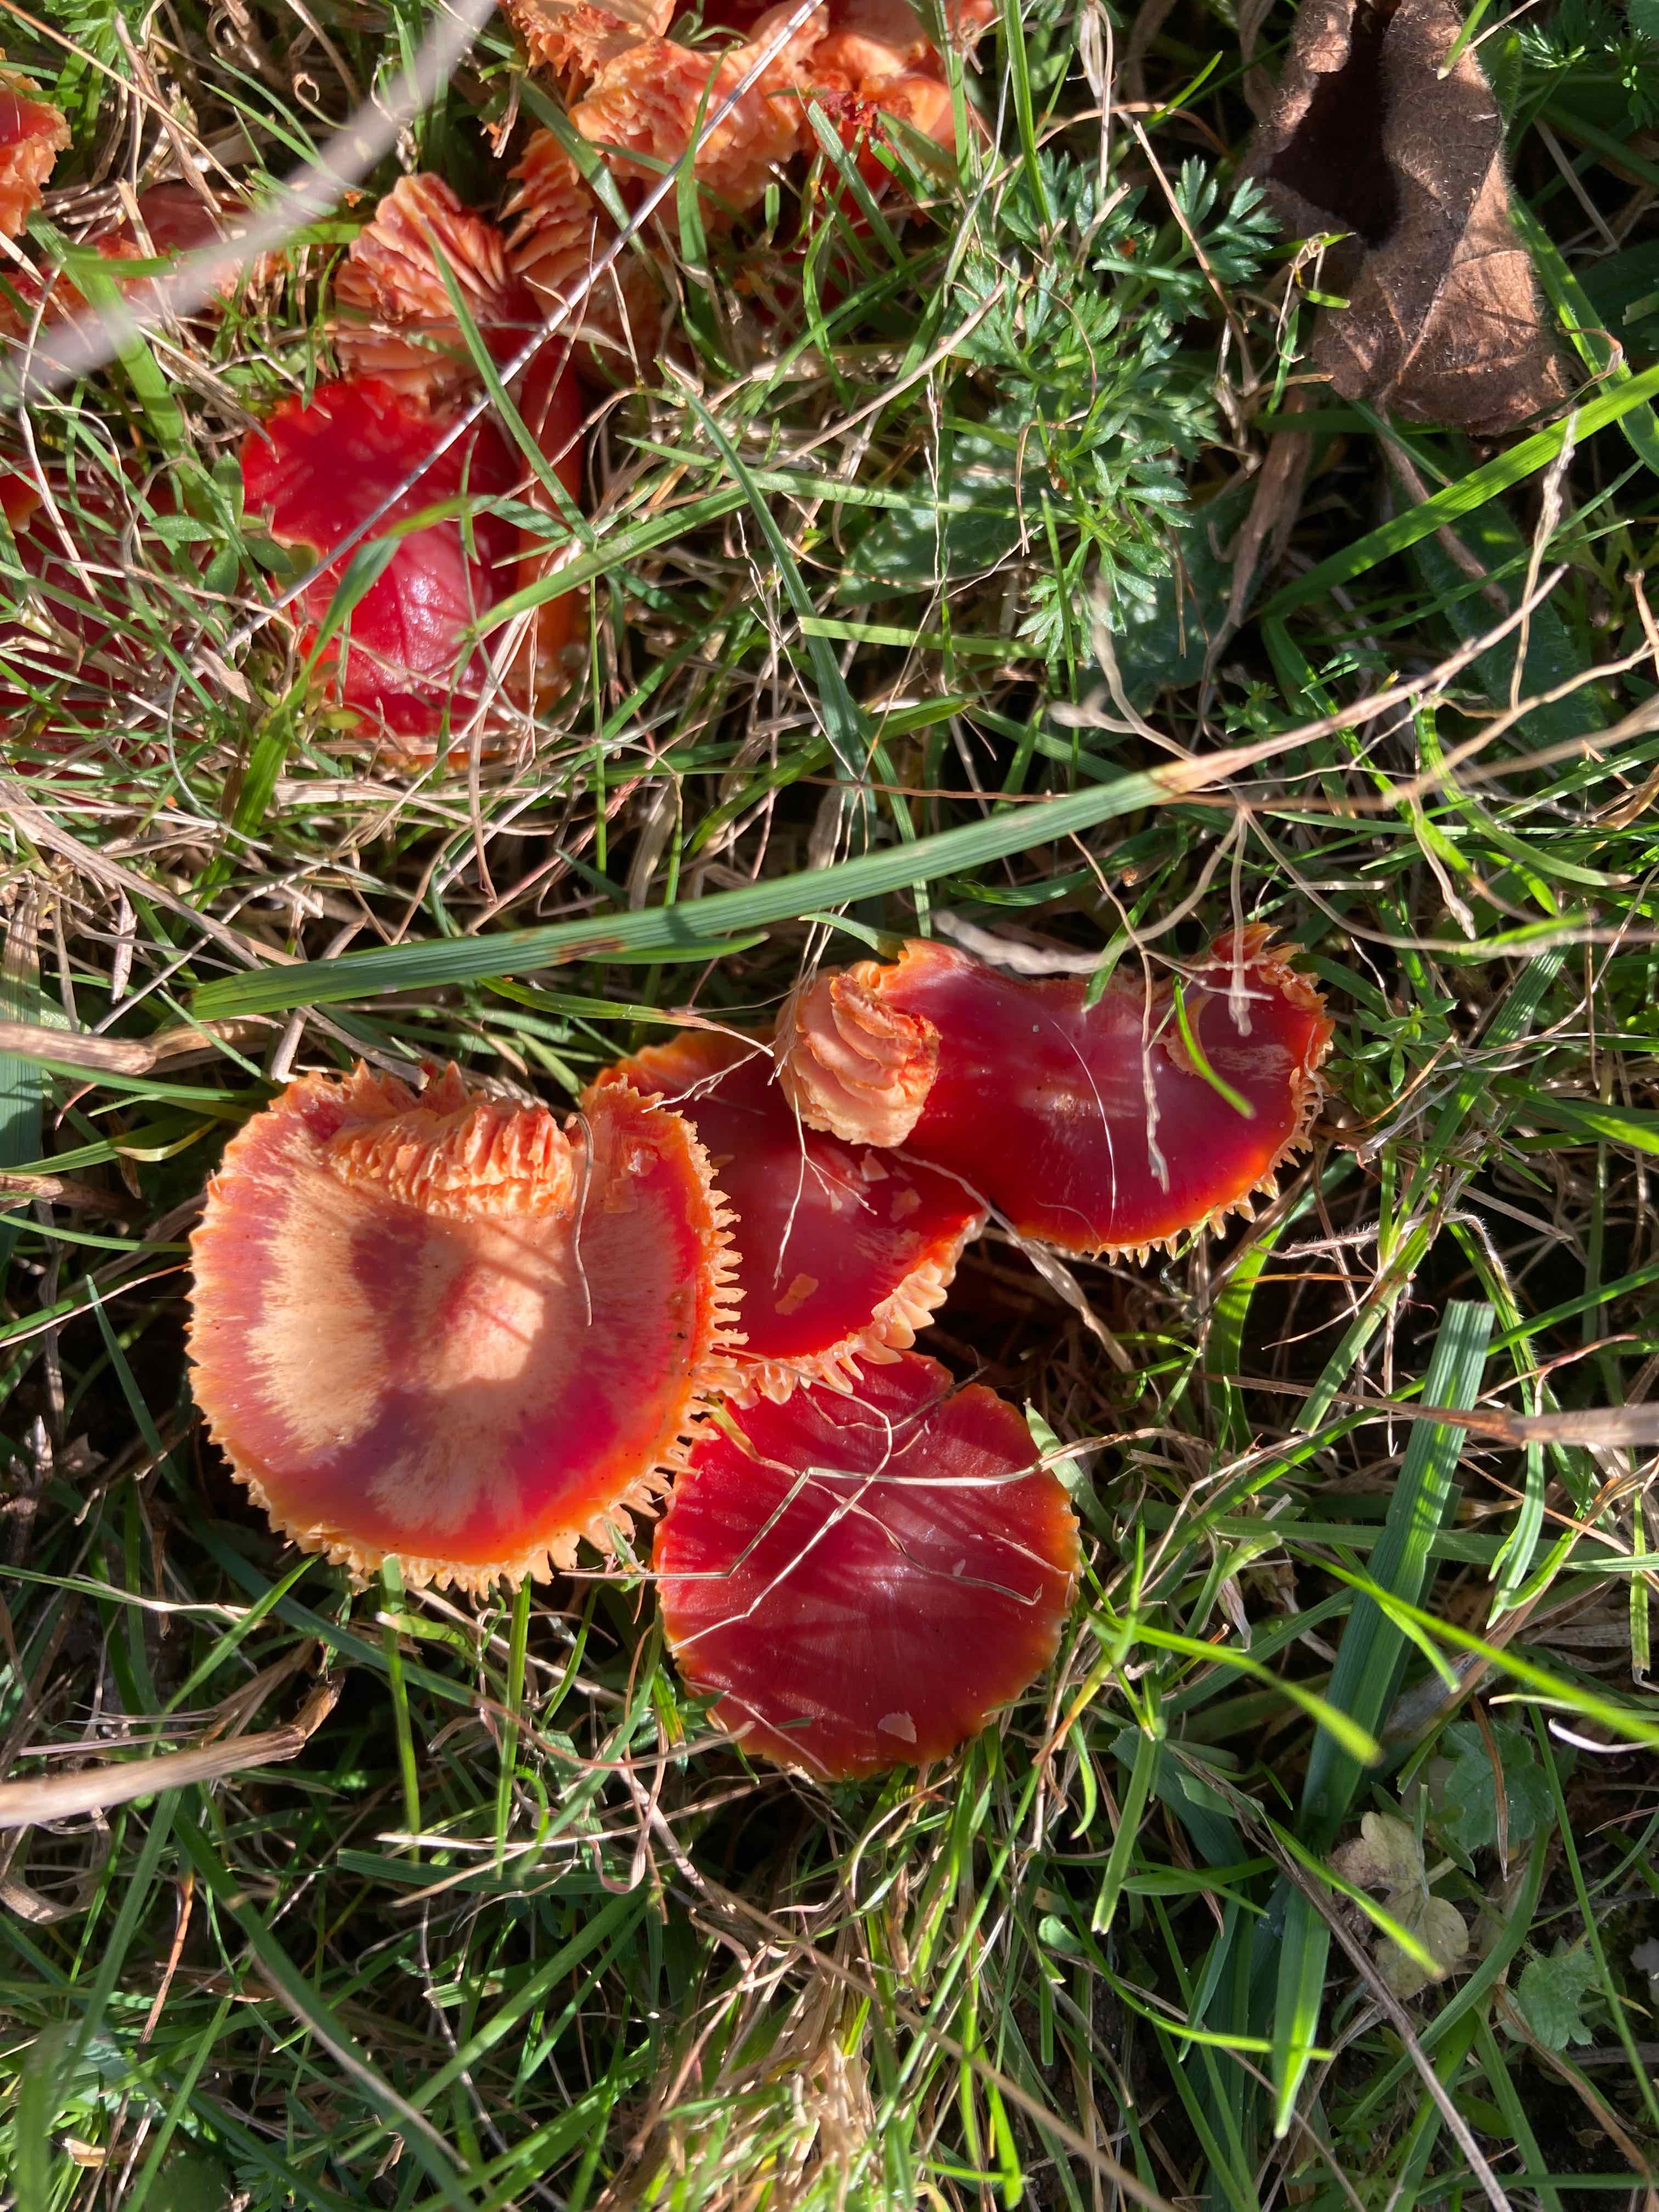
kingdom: Fungi
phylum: Basidiomycota
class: Agaricomycetes
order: Agaricales
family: Hygrophoraceae
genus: Hygrocybe
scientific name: Hygrocybe
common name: vokshat
